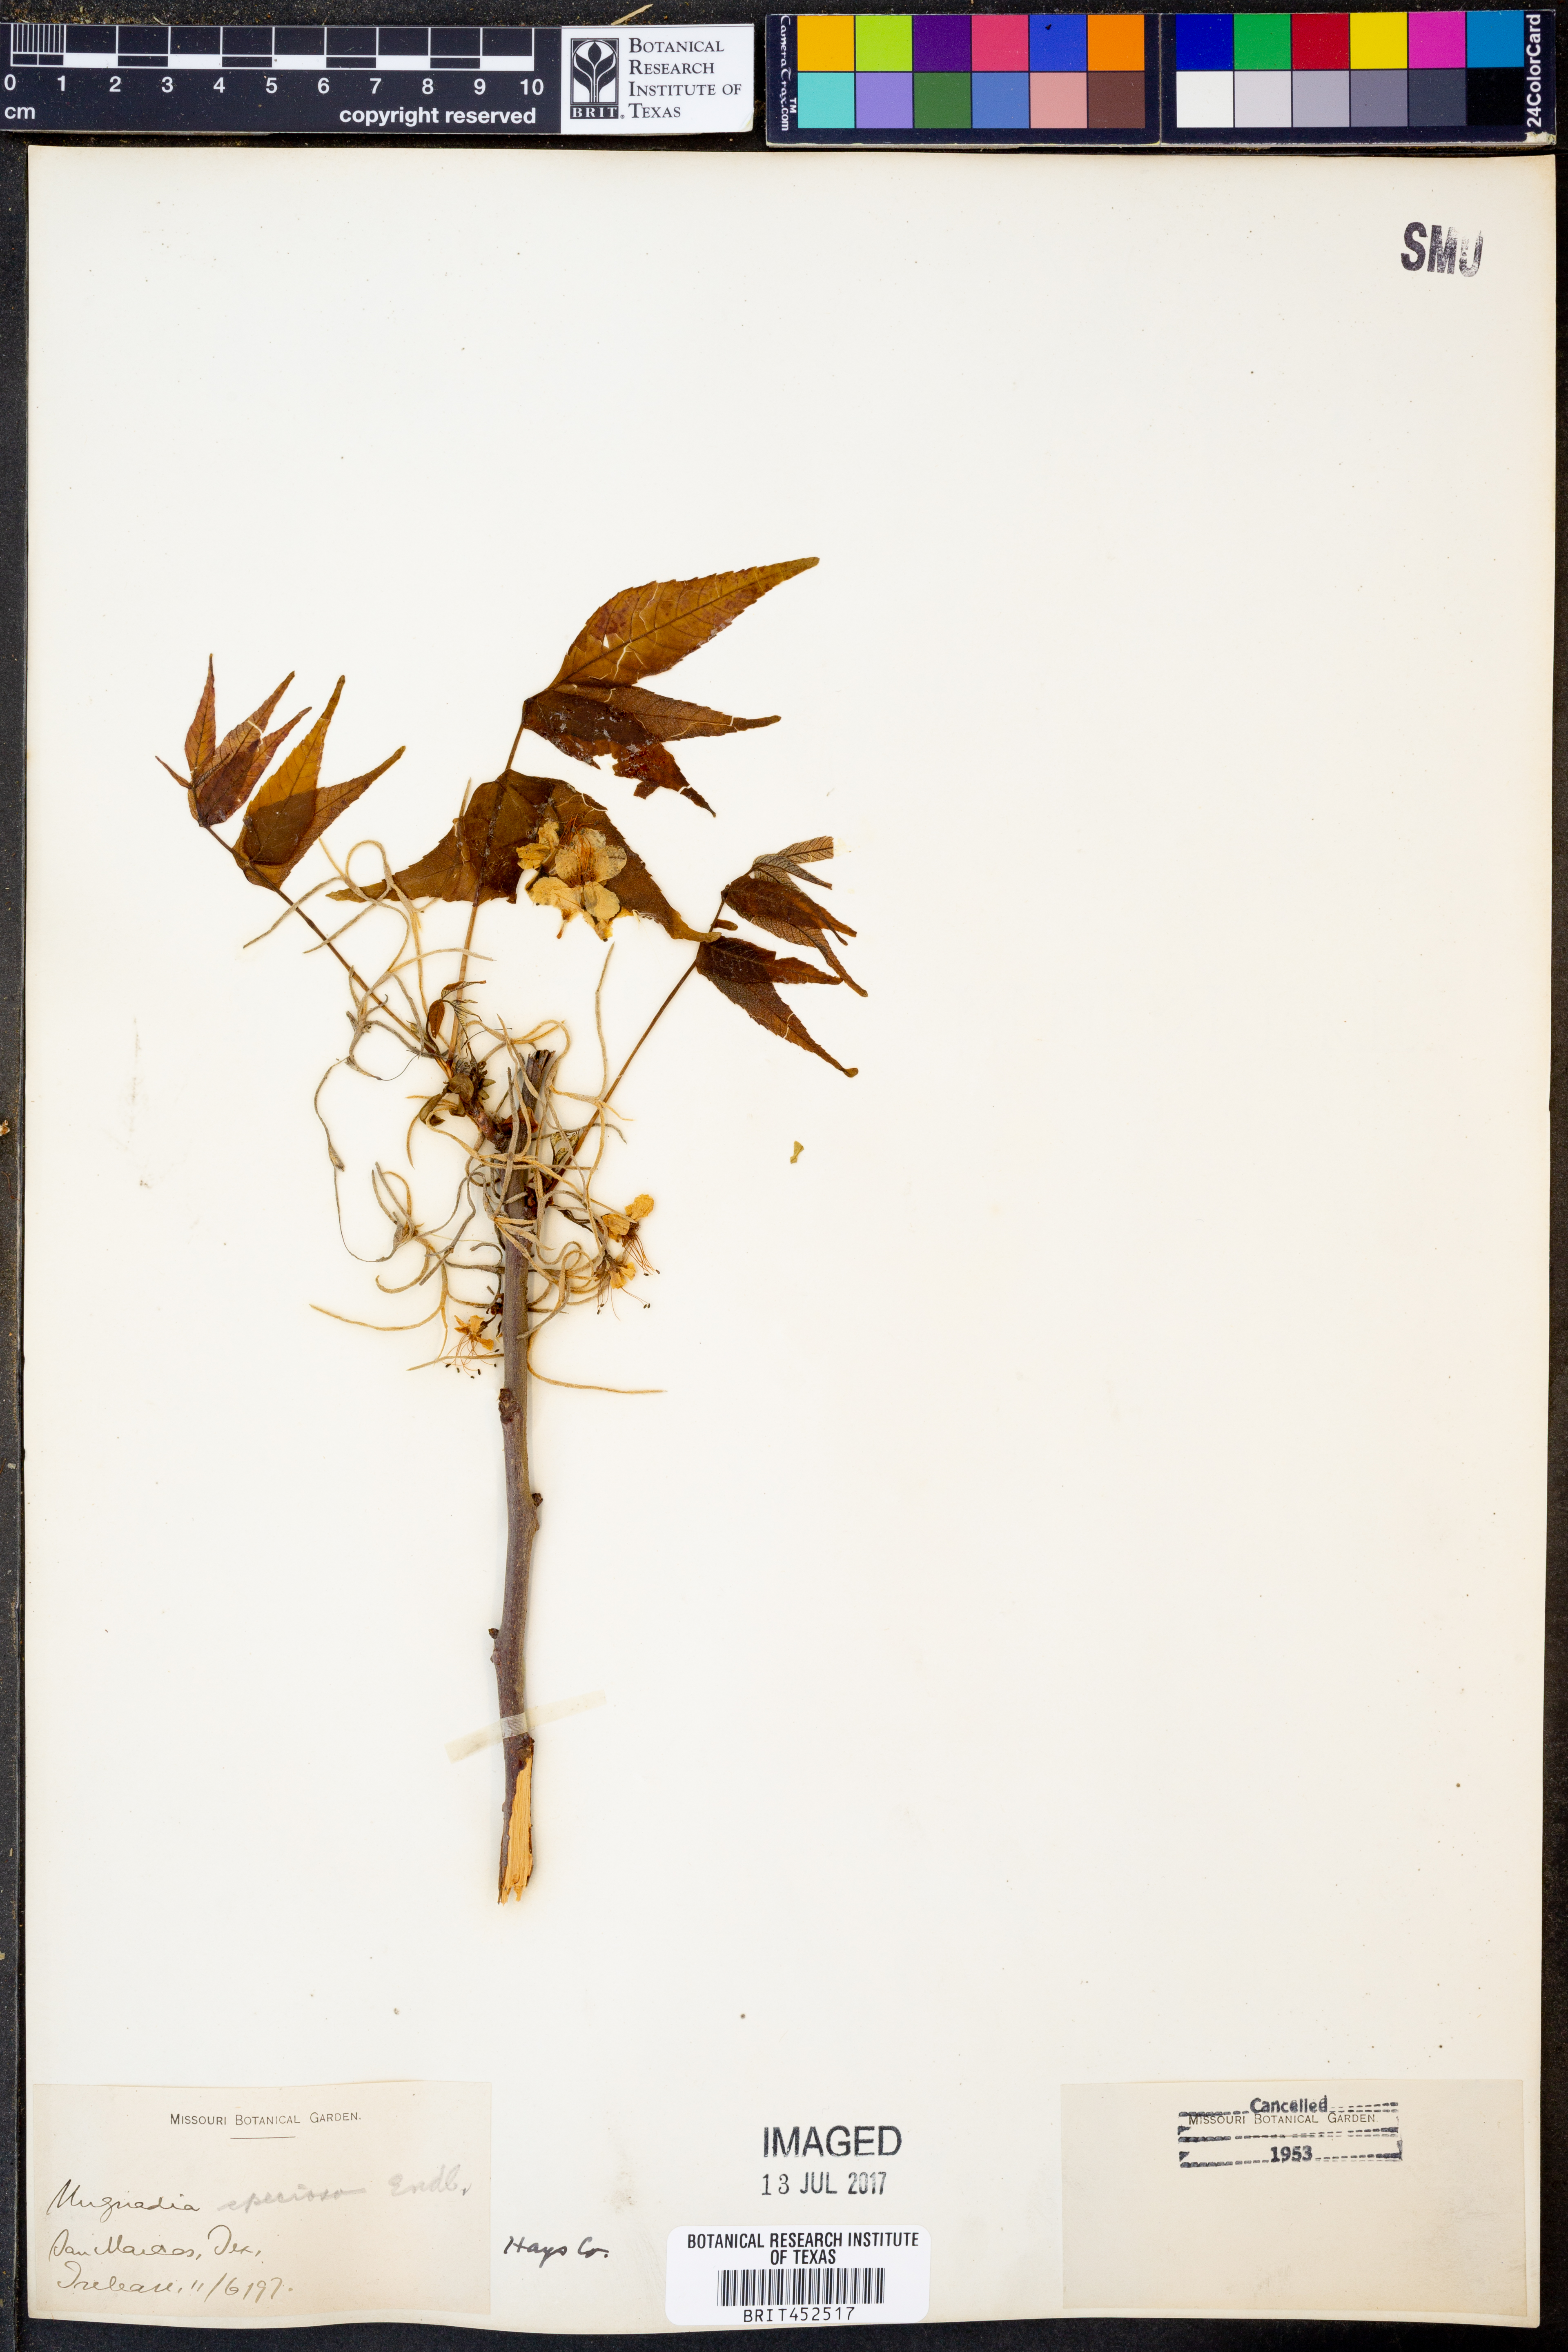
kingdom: Plantae
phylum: Tracheophyta
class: Magnoliopsida
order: Sapindales
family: Sapindaceae
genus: Ungnadia
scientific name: Ungnadia speciosa
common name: Texas-buckeye
